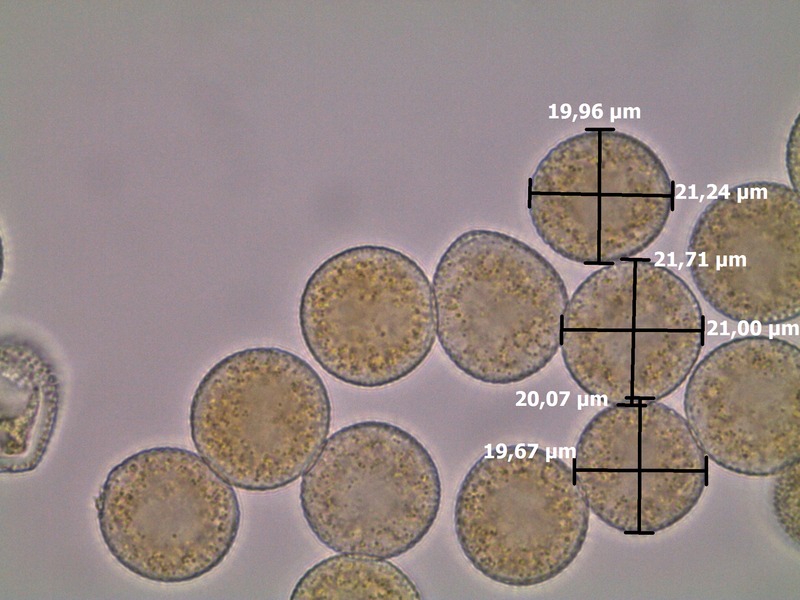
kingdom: Fungi
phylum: Basidiomycota
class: Pucciniomycetes
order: Pucciniales
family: Melampsoraceae
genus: Melampsora
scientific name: Melampsora populnea
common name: Dog's mercury rust
